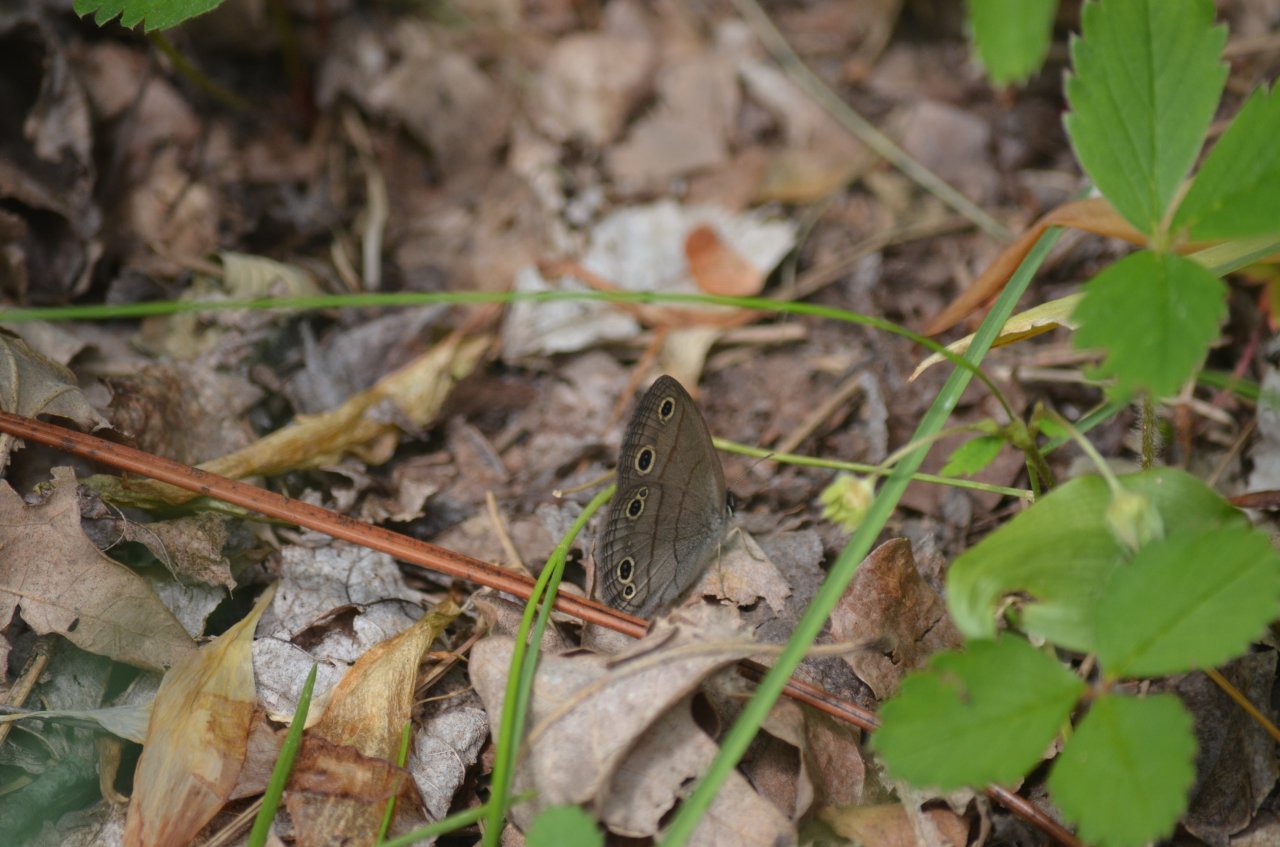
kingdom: Animalia
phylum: Arthropoda
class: Insecta
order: Lepidoptera
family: Nymphalidae
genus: Euptychia
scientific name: Euptychia cymela
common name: Little Wood Satyr
